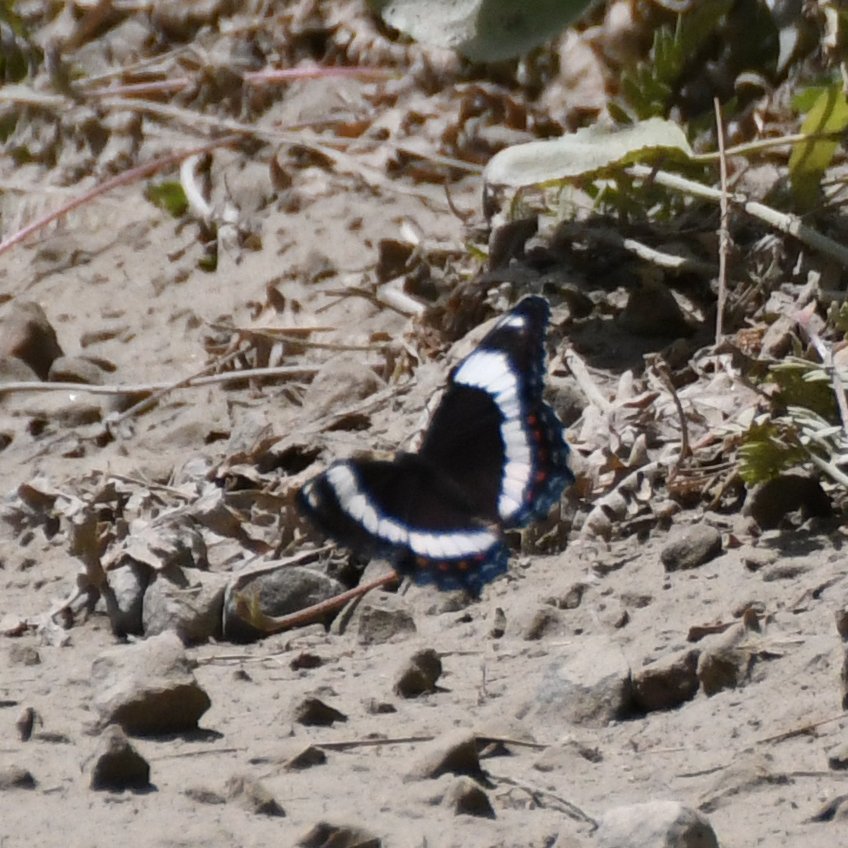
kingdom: Animalia
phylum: Arthropoda
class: Insecta
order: Lepidoptera
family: Nymphalidae
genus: Limenitis
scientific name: Limenitis arthemis
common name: Red-spotted Admiral
